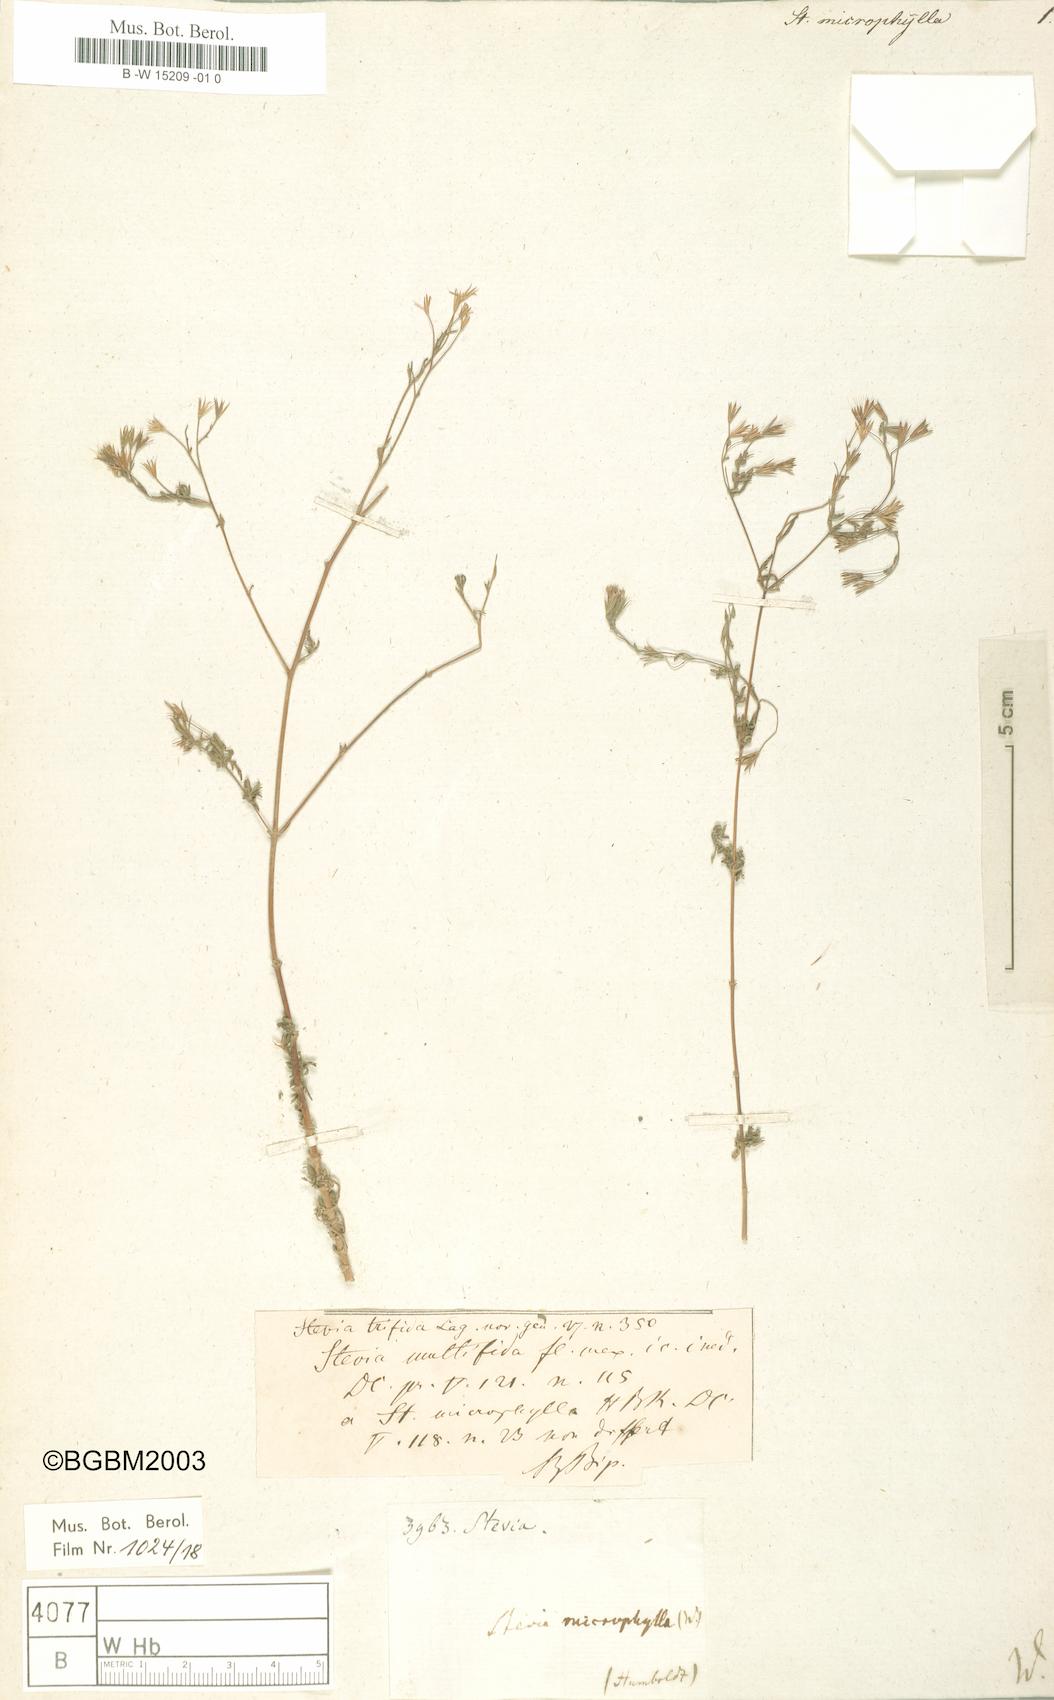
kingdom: Plantae
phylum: Tracheophyta
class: Magnoliopsida
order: Asterales
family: Asteraceae
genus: Stevia
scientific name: Stevia trifida
